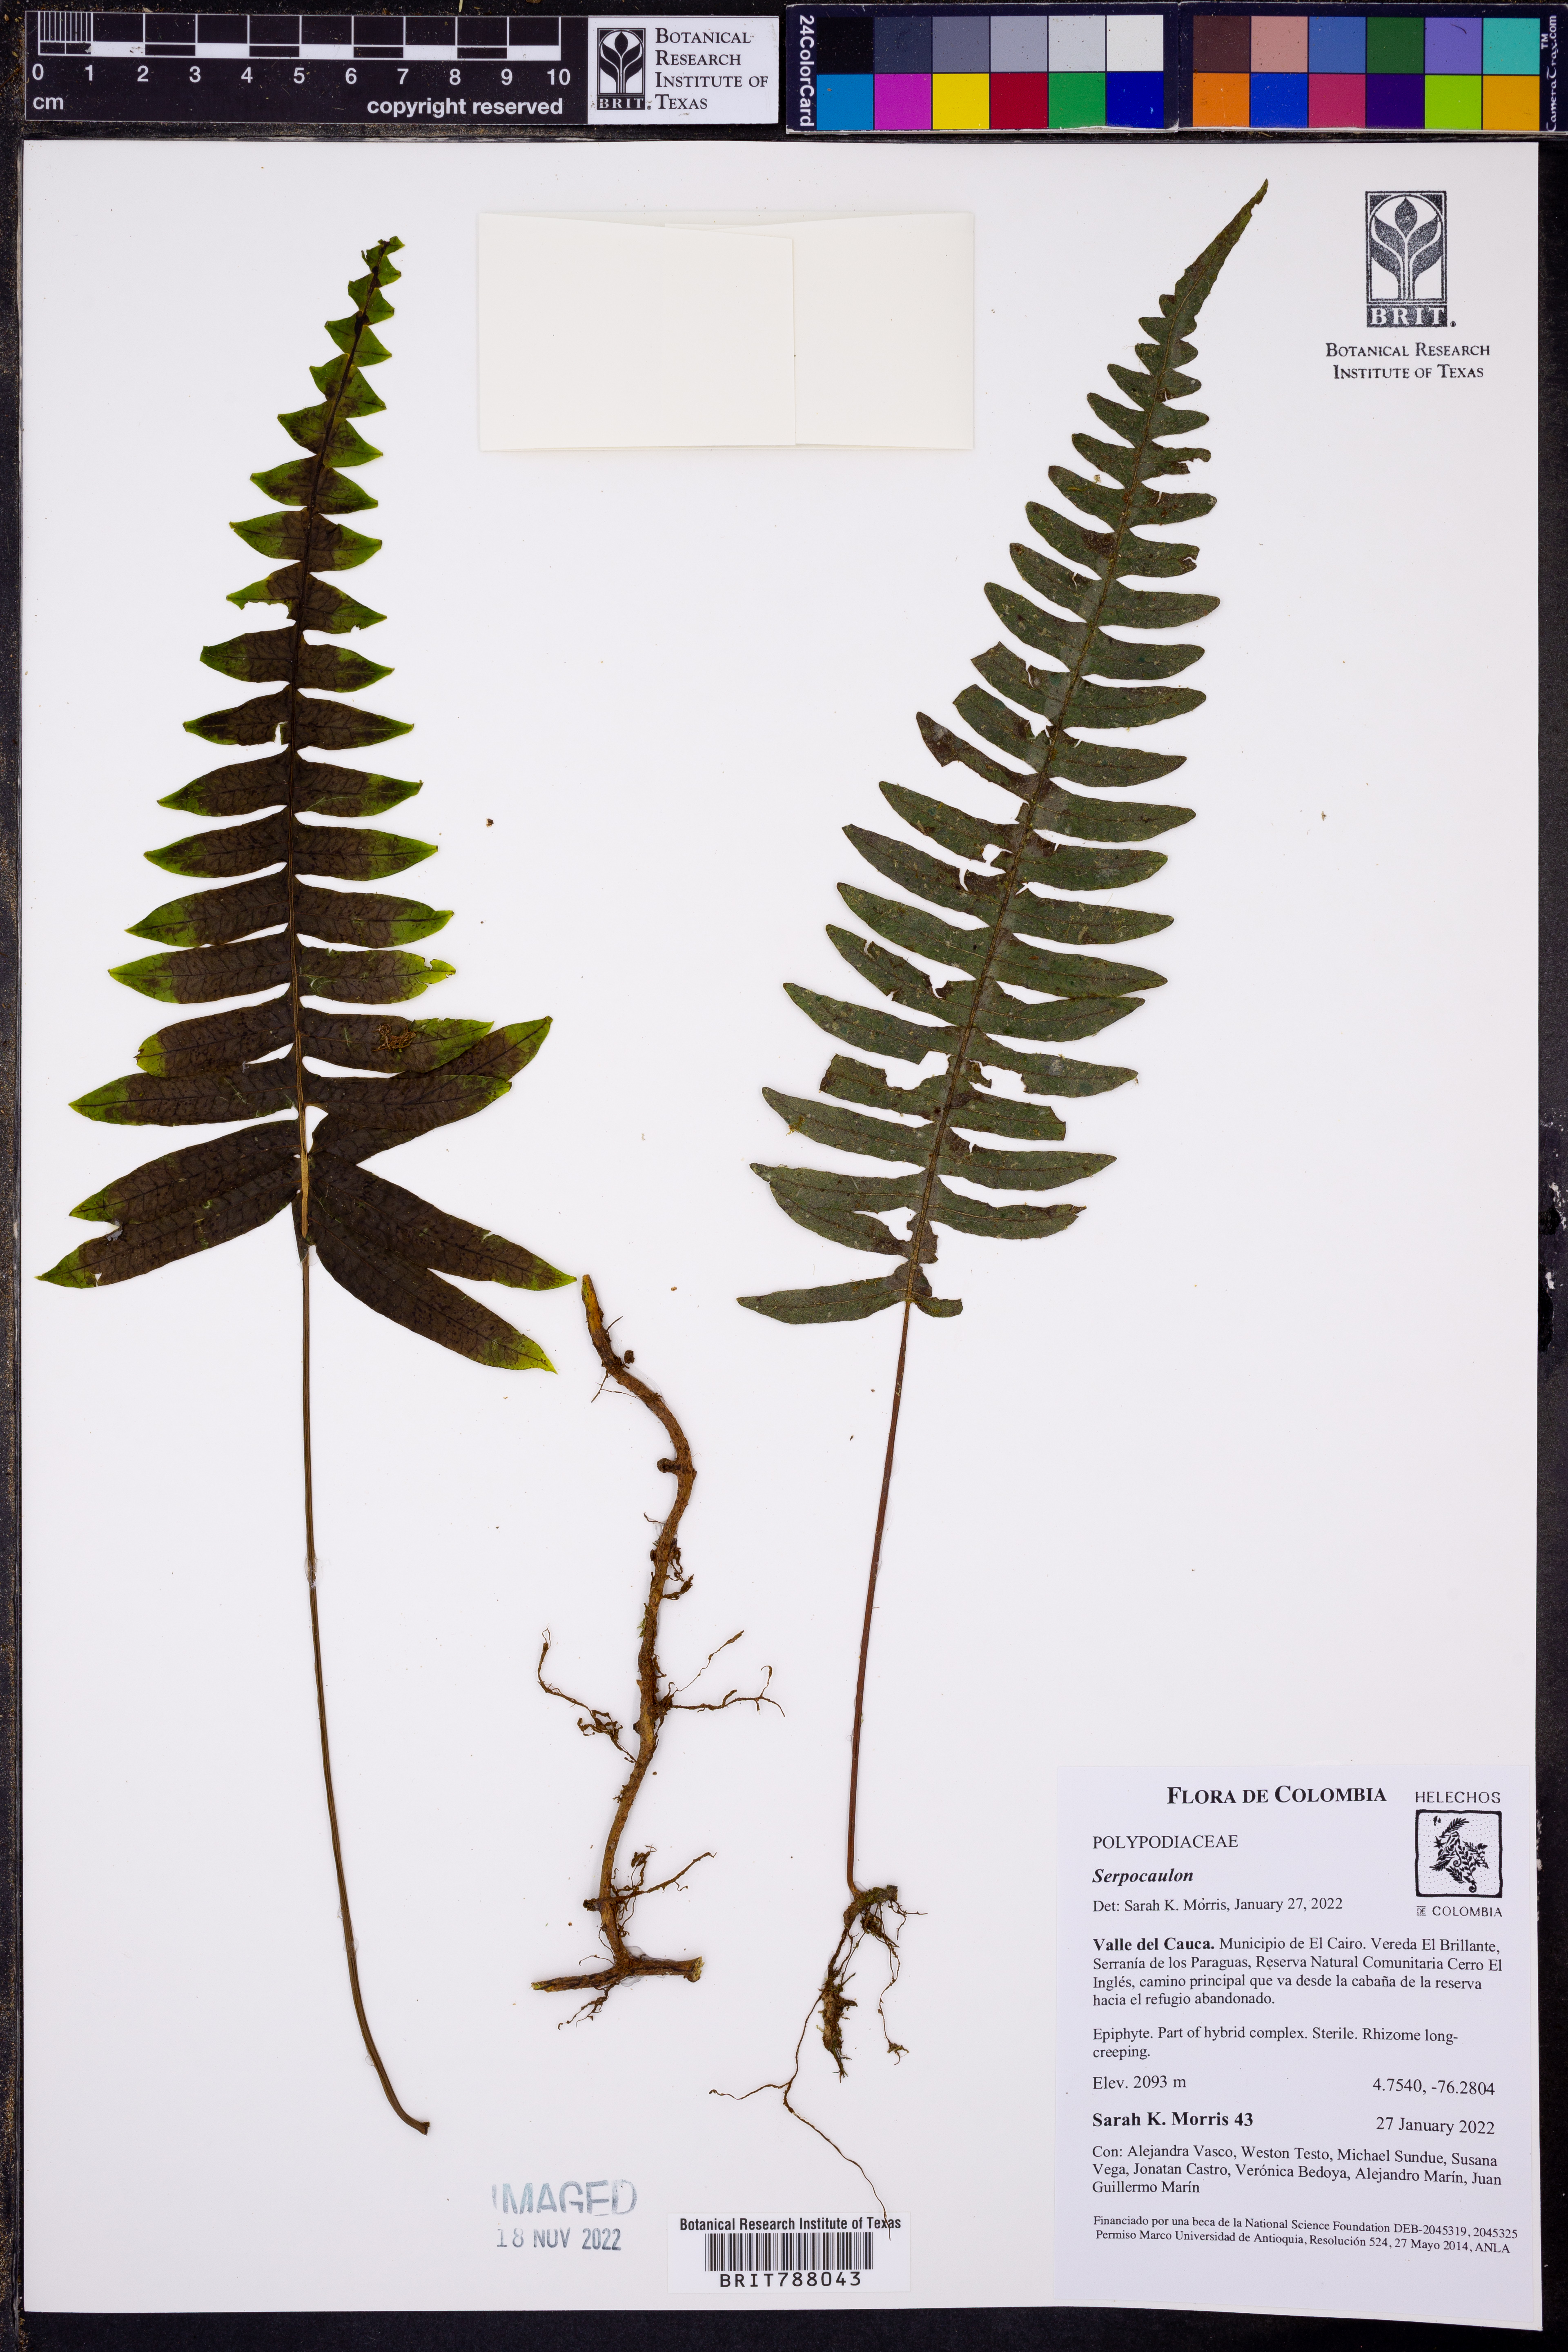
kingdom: Plantae
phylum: Tracheophyta
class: Polypodiopsida
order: Polypodiales
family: Polypodiaceae
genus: Serpocaulon
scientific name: Serpocaulon
